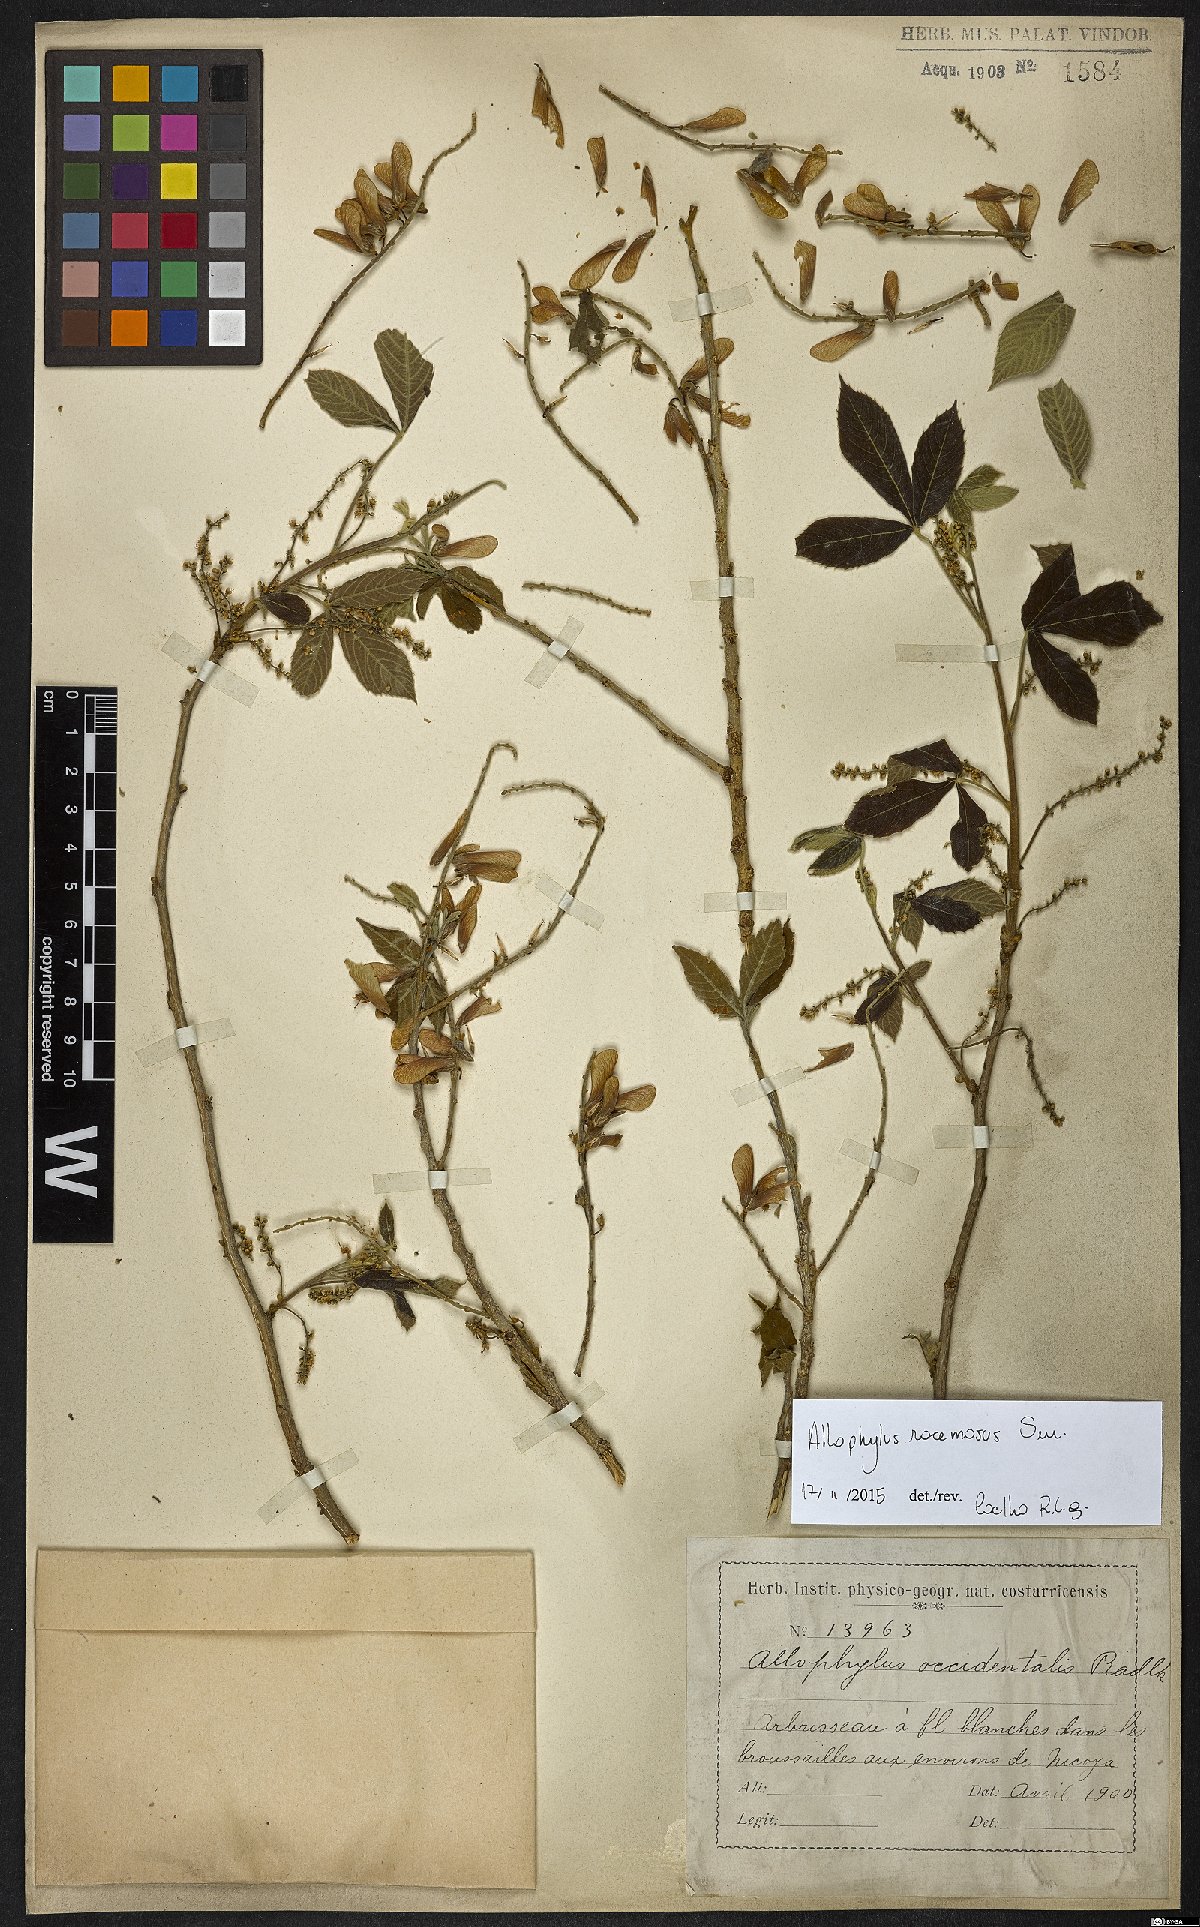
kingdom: Plantae
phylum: Tracheophyta
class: Magnoliopsida
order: Sapindales
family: Sapindaceae
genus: Allophylus
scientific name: Allophylus racemosus
